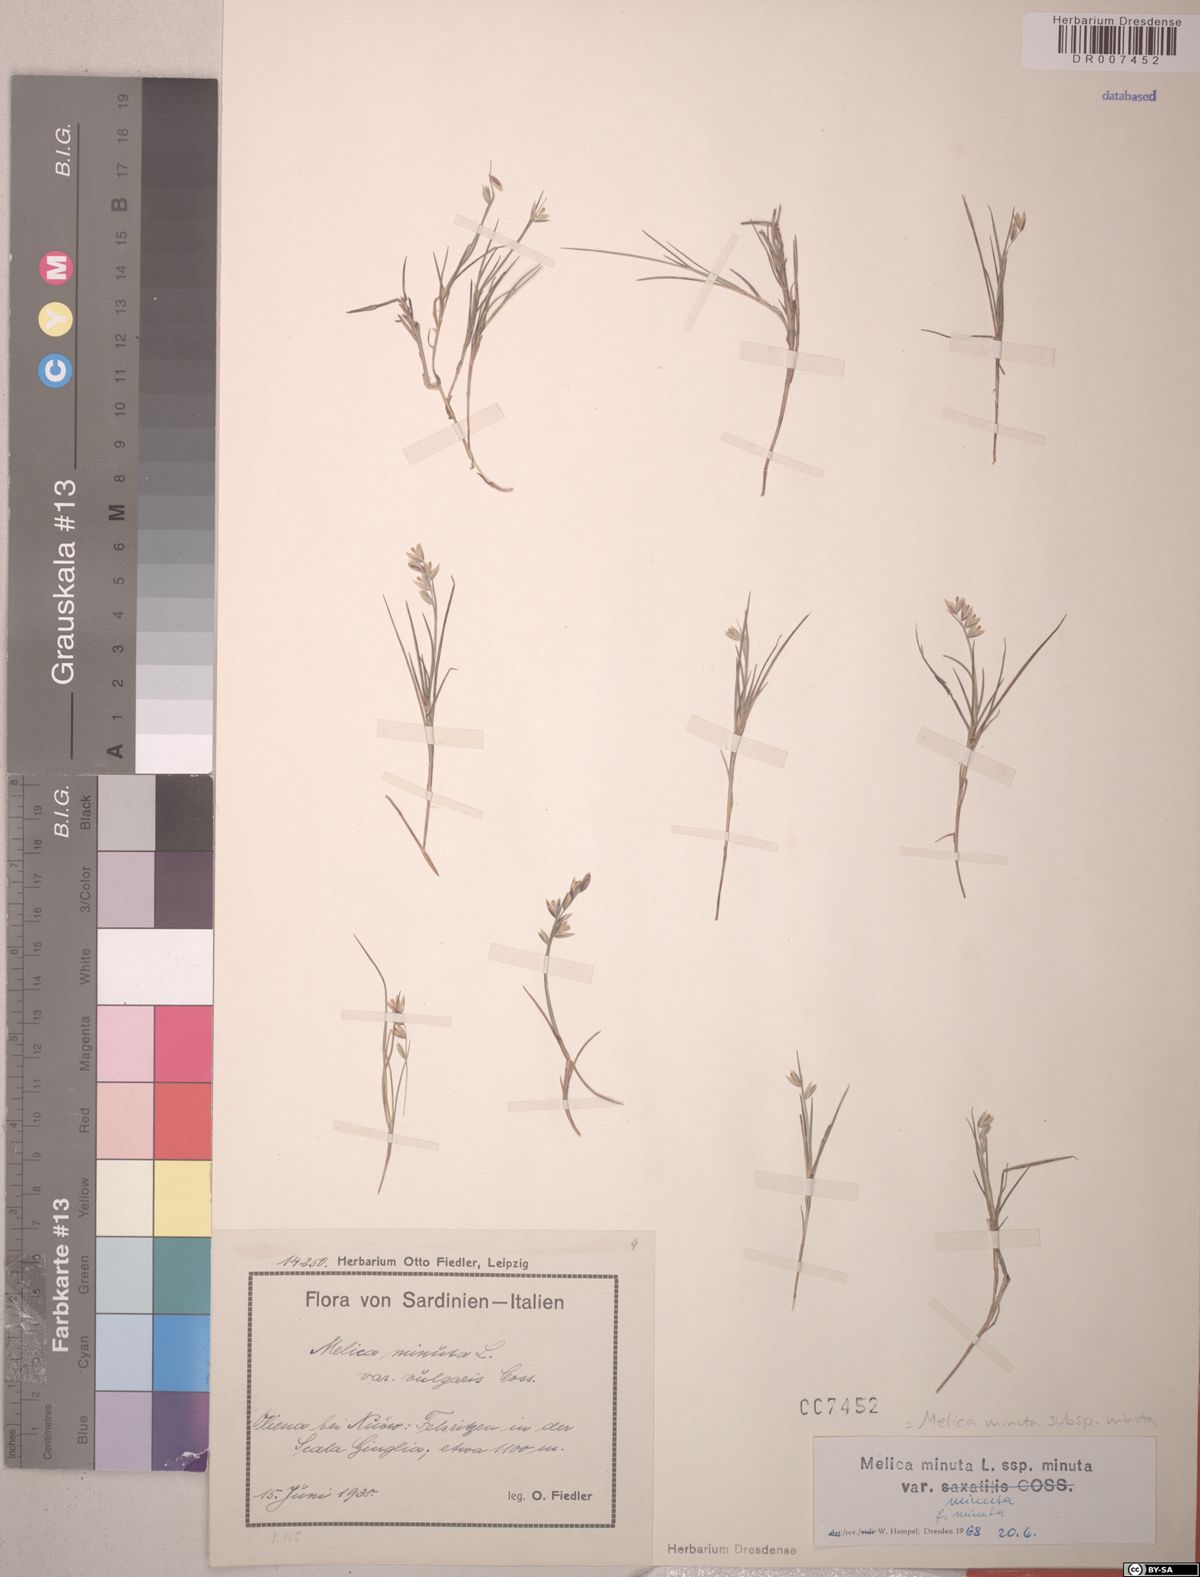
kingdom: Plantae
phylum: Tracheophyta
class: Liliopsida
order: Poales
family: Poaceae
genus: Melica
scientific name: Melica minuta
